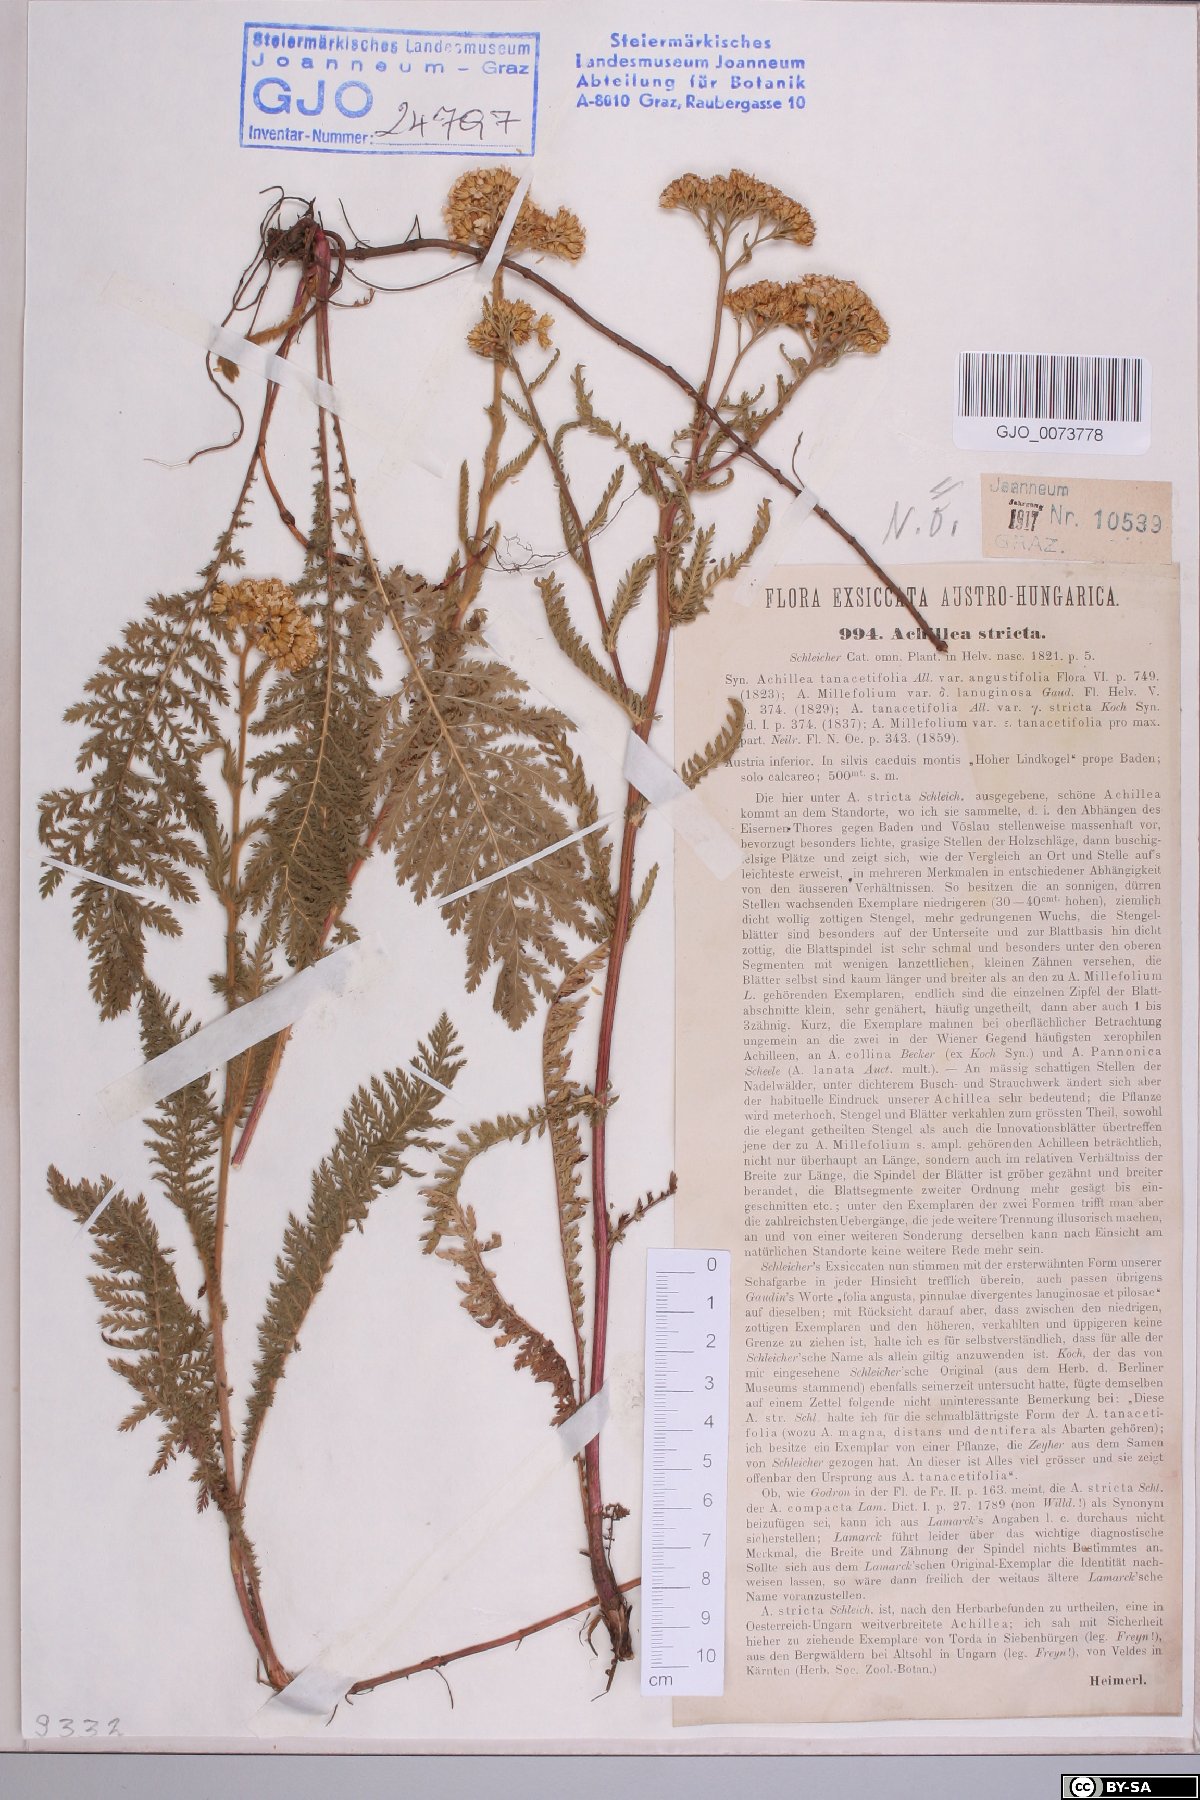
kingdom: Plantae
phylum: Tracheophyta
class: Magnoliopsida
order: Asterales
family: Asteraceae
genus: Achillea
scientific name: Achillea distans
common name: Tall yarrow
